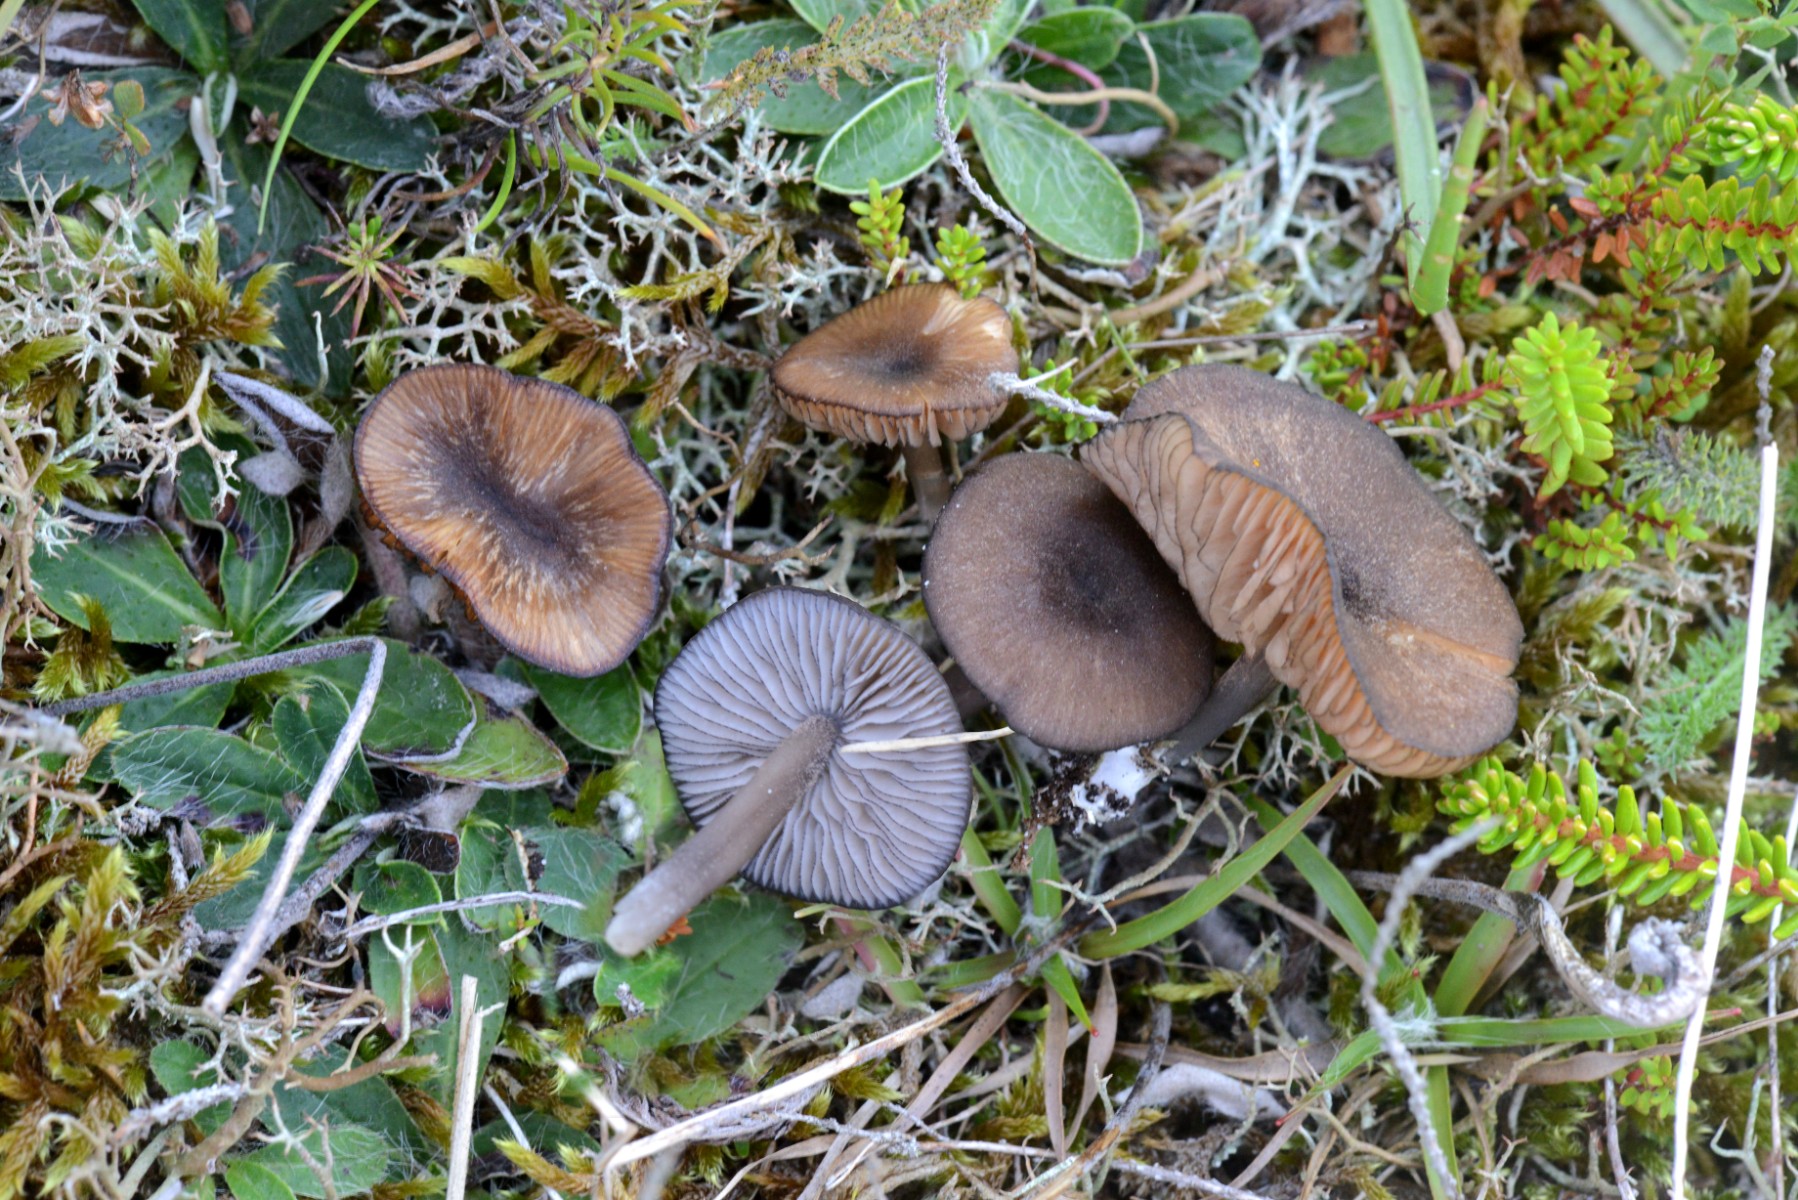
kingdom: Fungi
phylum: Basidiomycota
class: Agaricomycetes
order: Agaricales
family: Entolomataceae
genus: Entoloma
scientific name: Entoloma caesiocinctum
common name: Blue-girdled pinkgill
